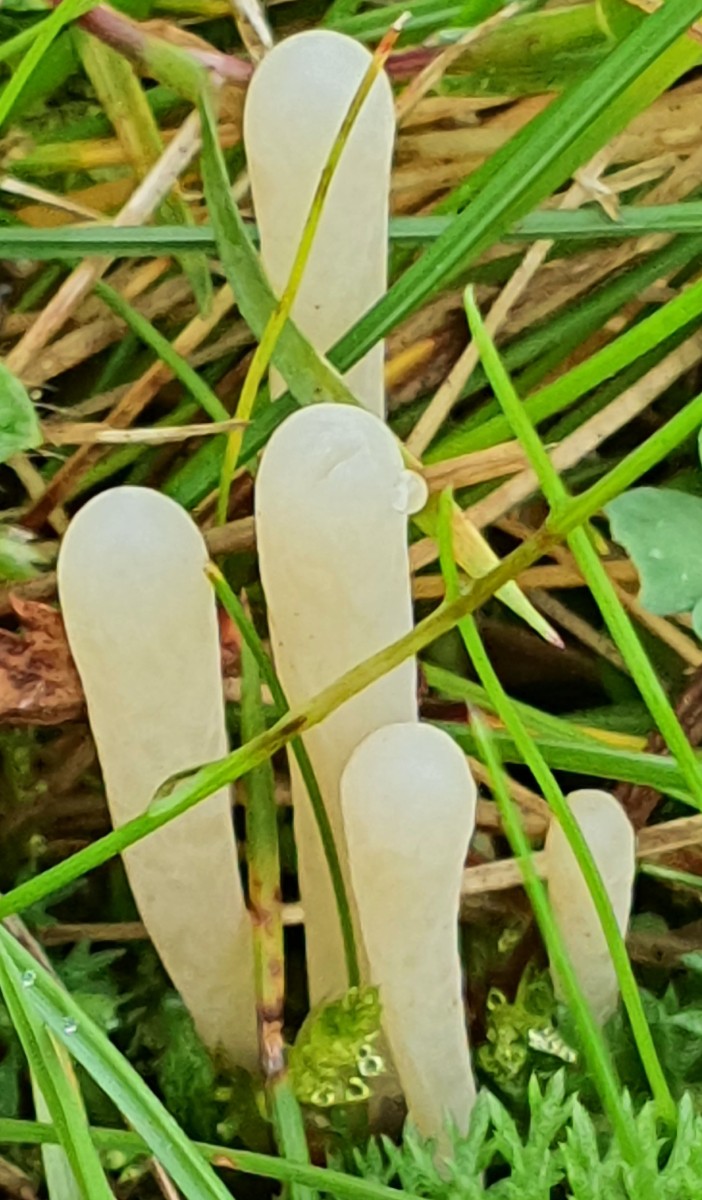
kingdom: Fungi
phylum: Basidiomycota
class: Agaricomycetes
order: Agaricales
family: Clavariaceae
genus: Clavaria
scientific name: Clavaria tenuipes
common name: isabellafarvet køllesvamp
